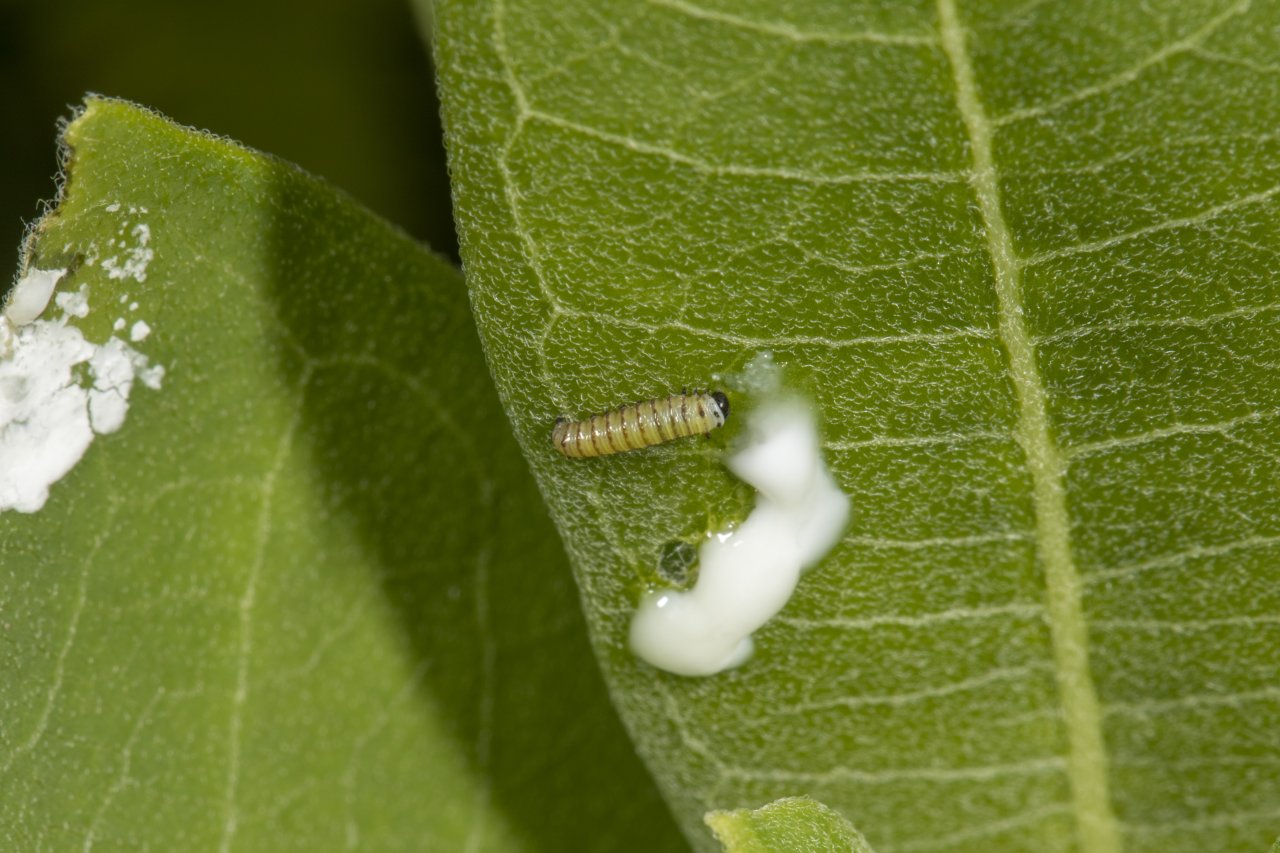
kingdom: Animalia
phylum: Arthropoda
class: Insecta
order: Lepidoptera
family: Nymphalidae
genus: Danaus
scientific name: Danaus plexippus
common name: Monarch
